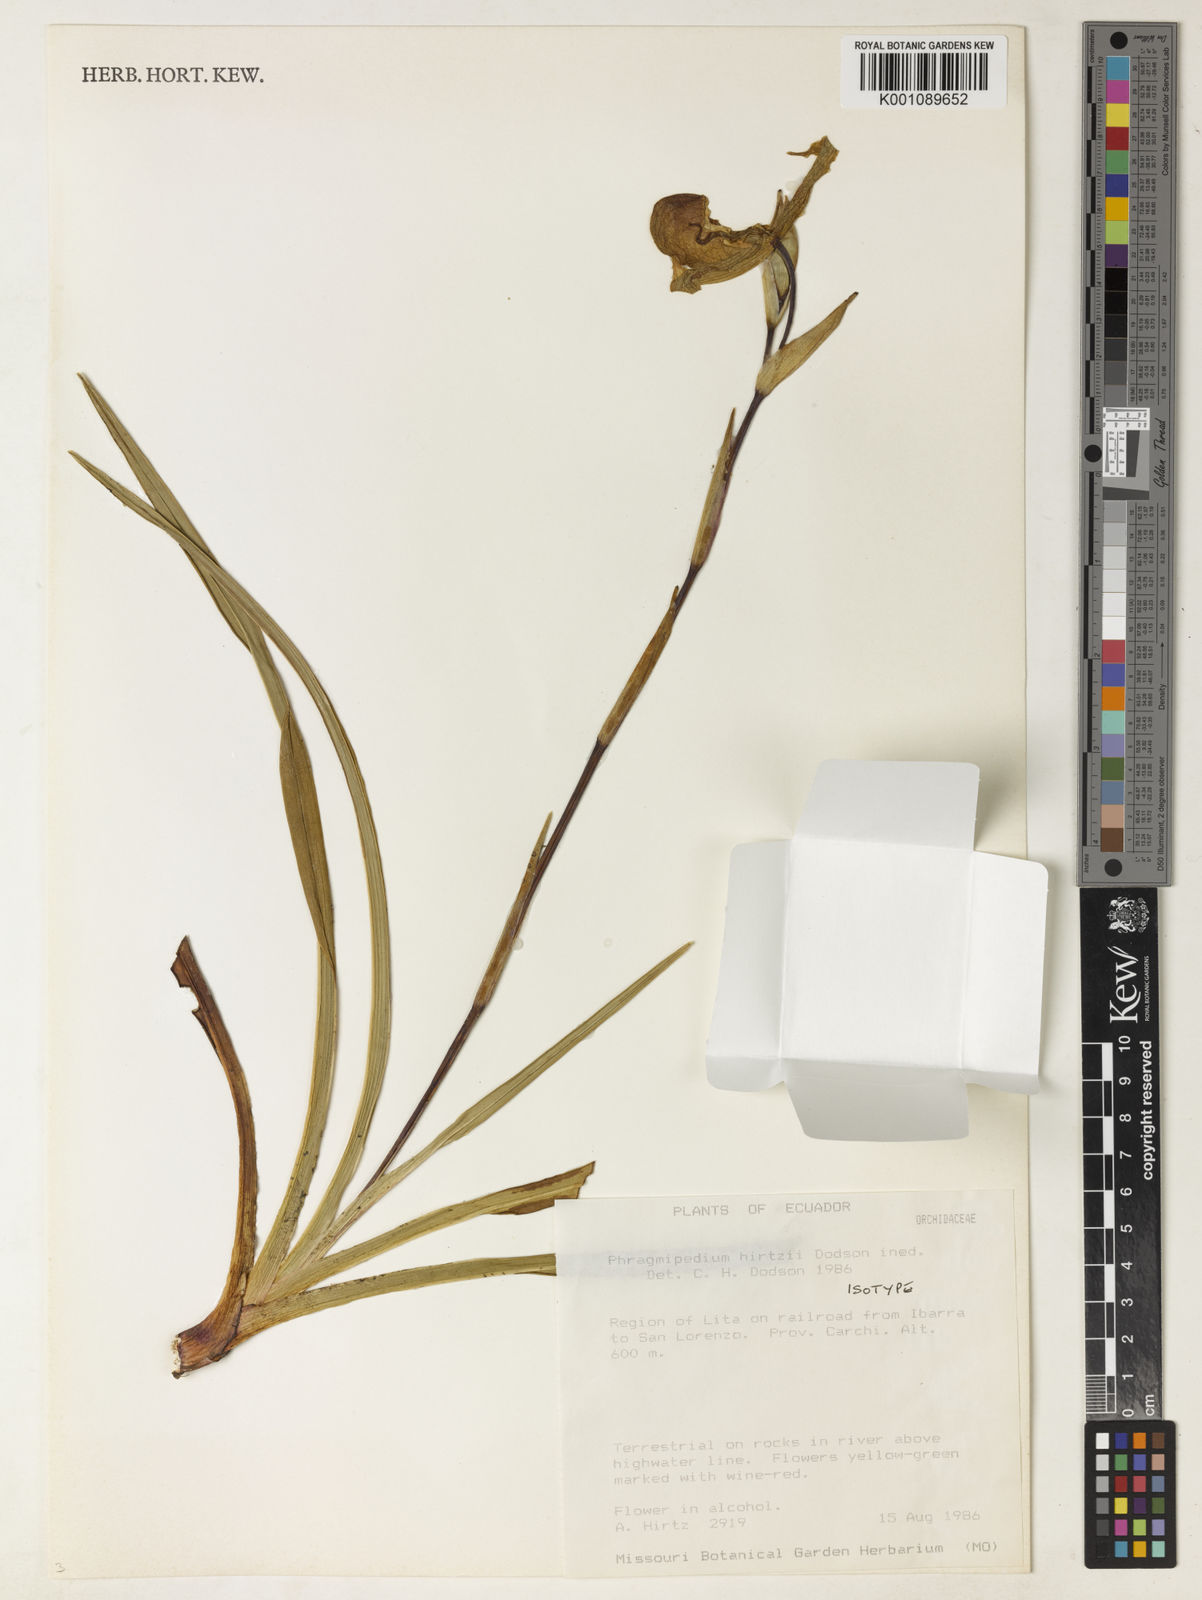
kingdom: Plantae
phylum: Tracheophyta
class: Liliopsida
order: Asparagales
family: Orchidaceae
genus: Phragmipedium
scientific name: Phragmipedium hirtzii
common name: Hirtz' phragmipedium
